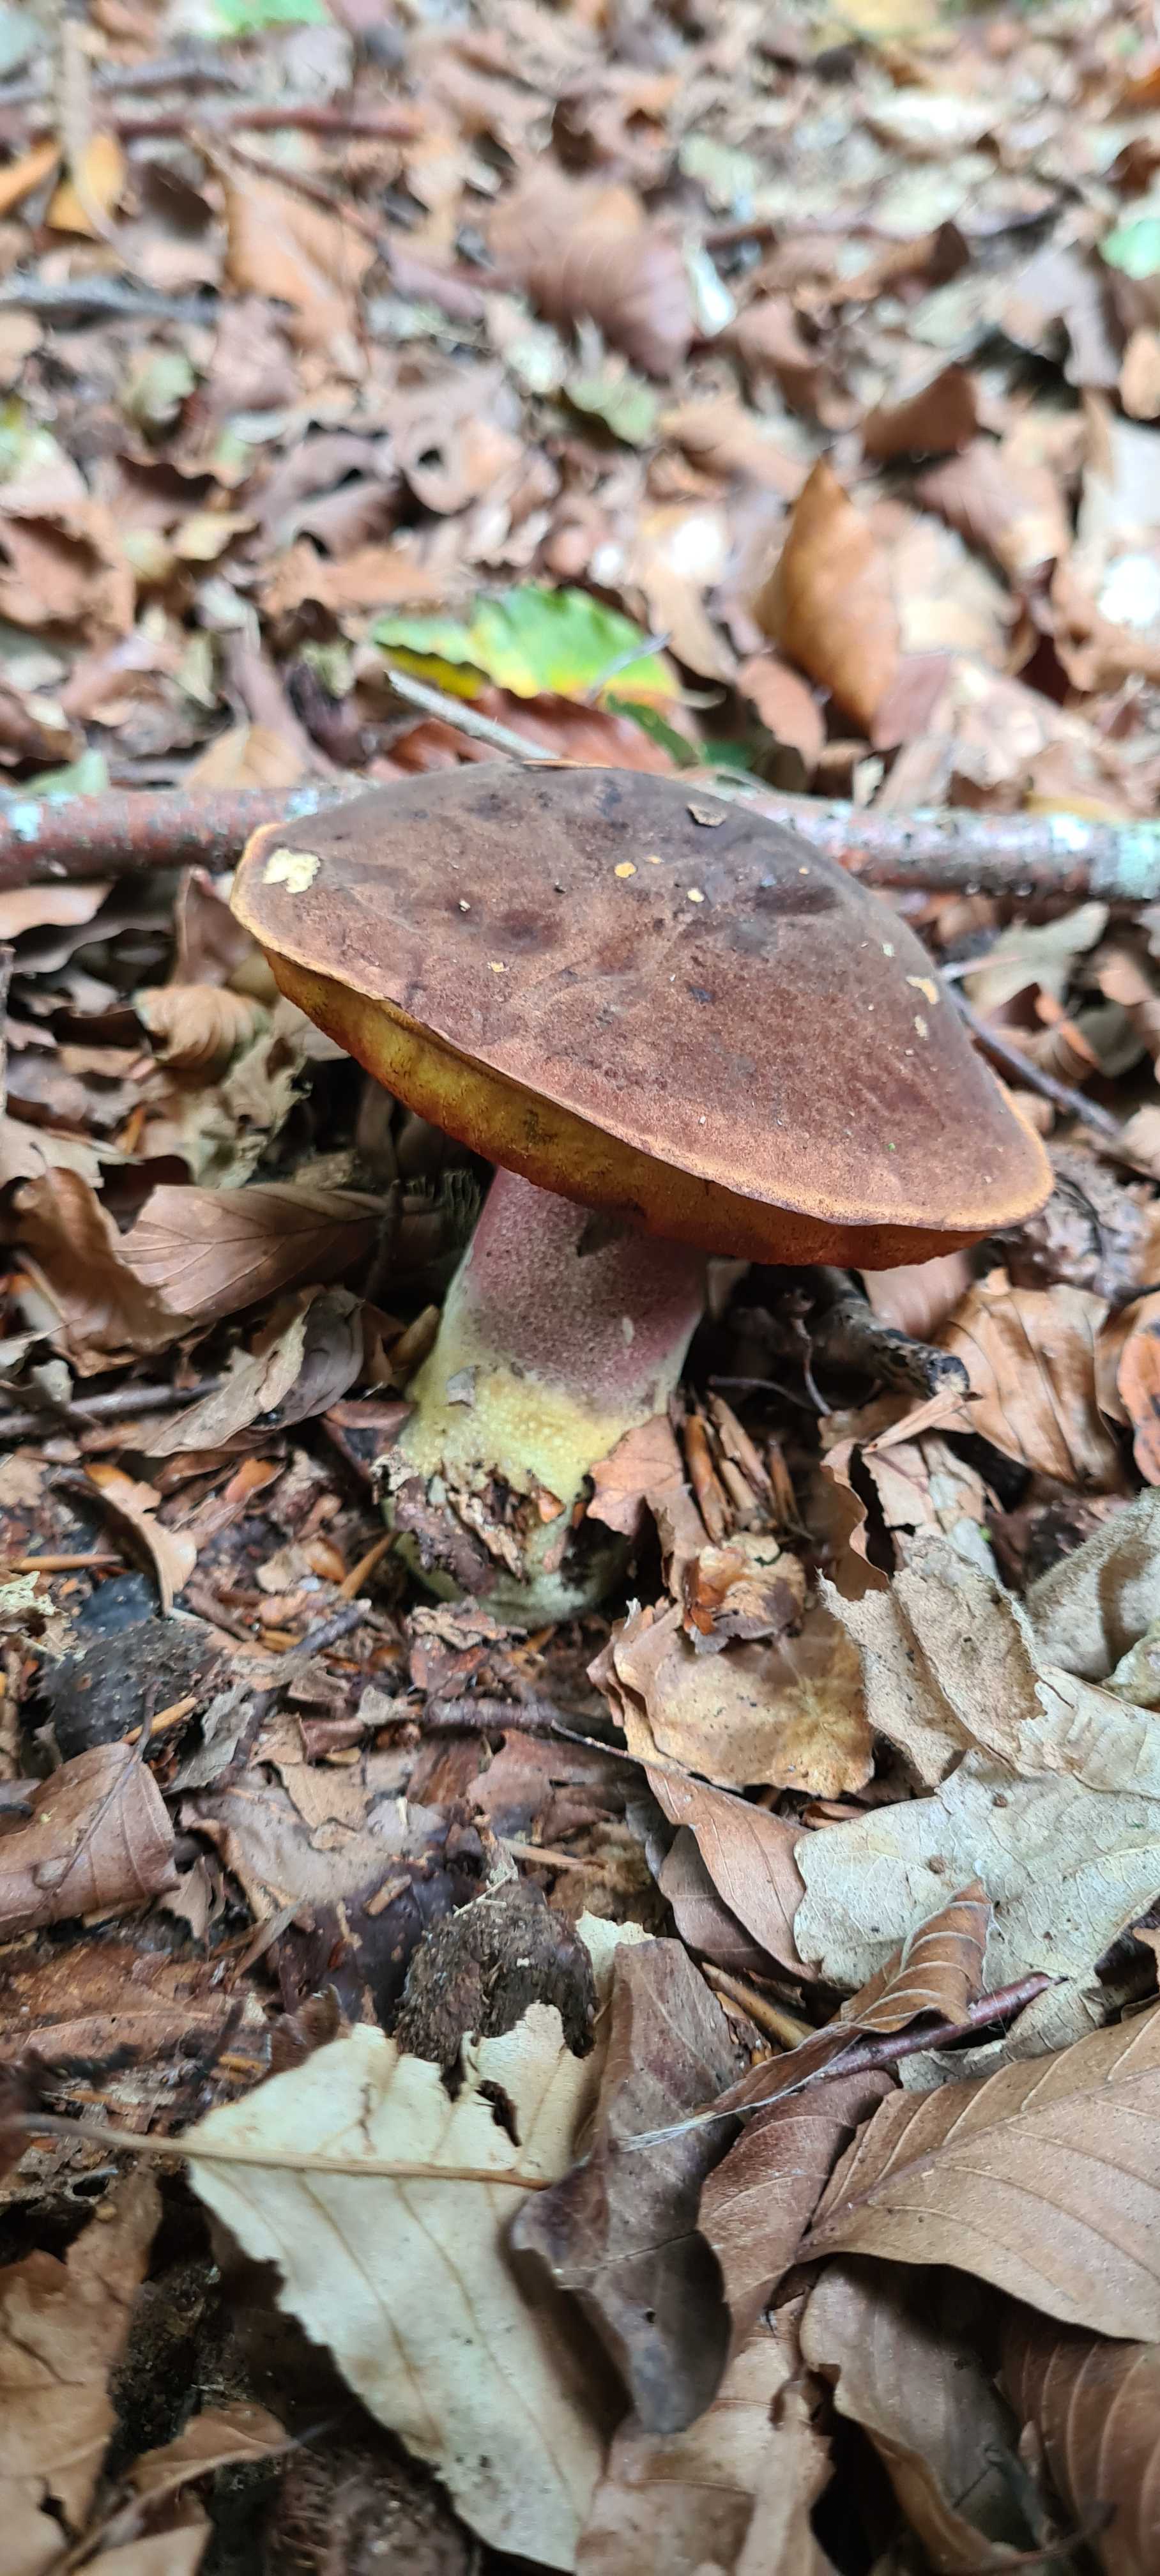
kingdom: Fungi
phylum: Basidiomycota
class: Agaricomycetes
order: Boletales
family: Boletaceae
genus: Neoboletus
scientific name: Neoboletus erythropus
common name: punktstokket indigorørhat
